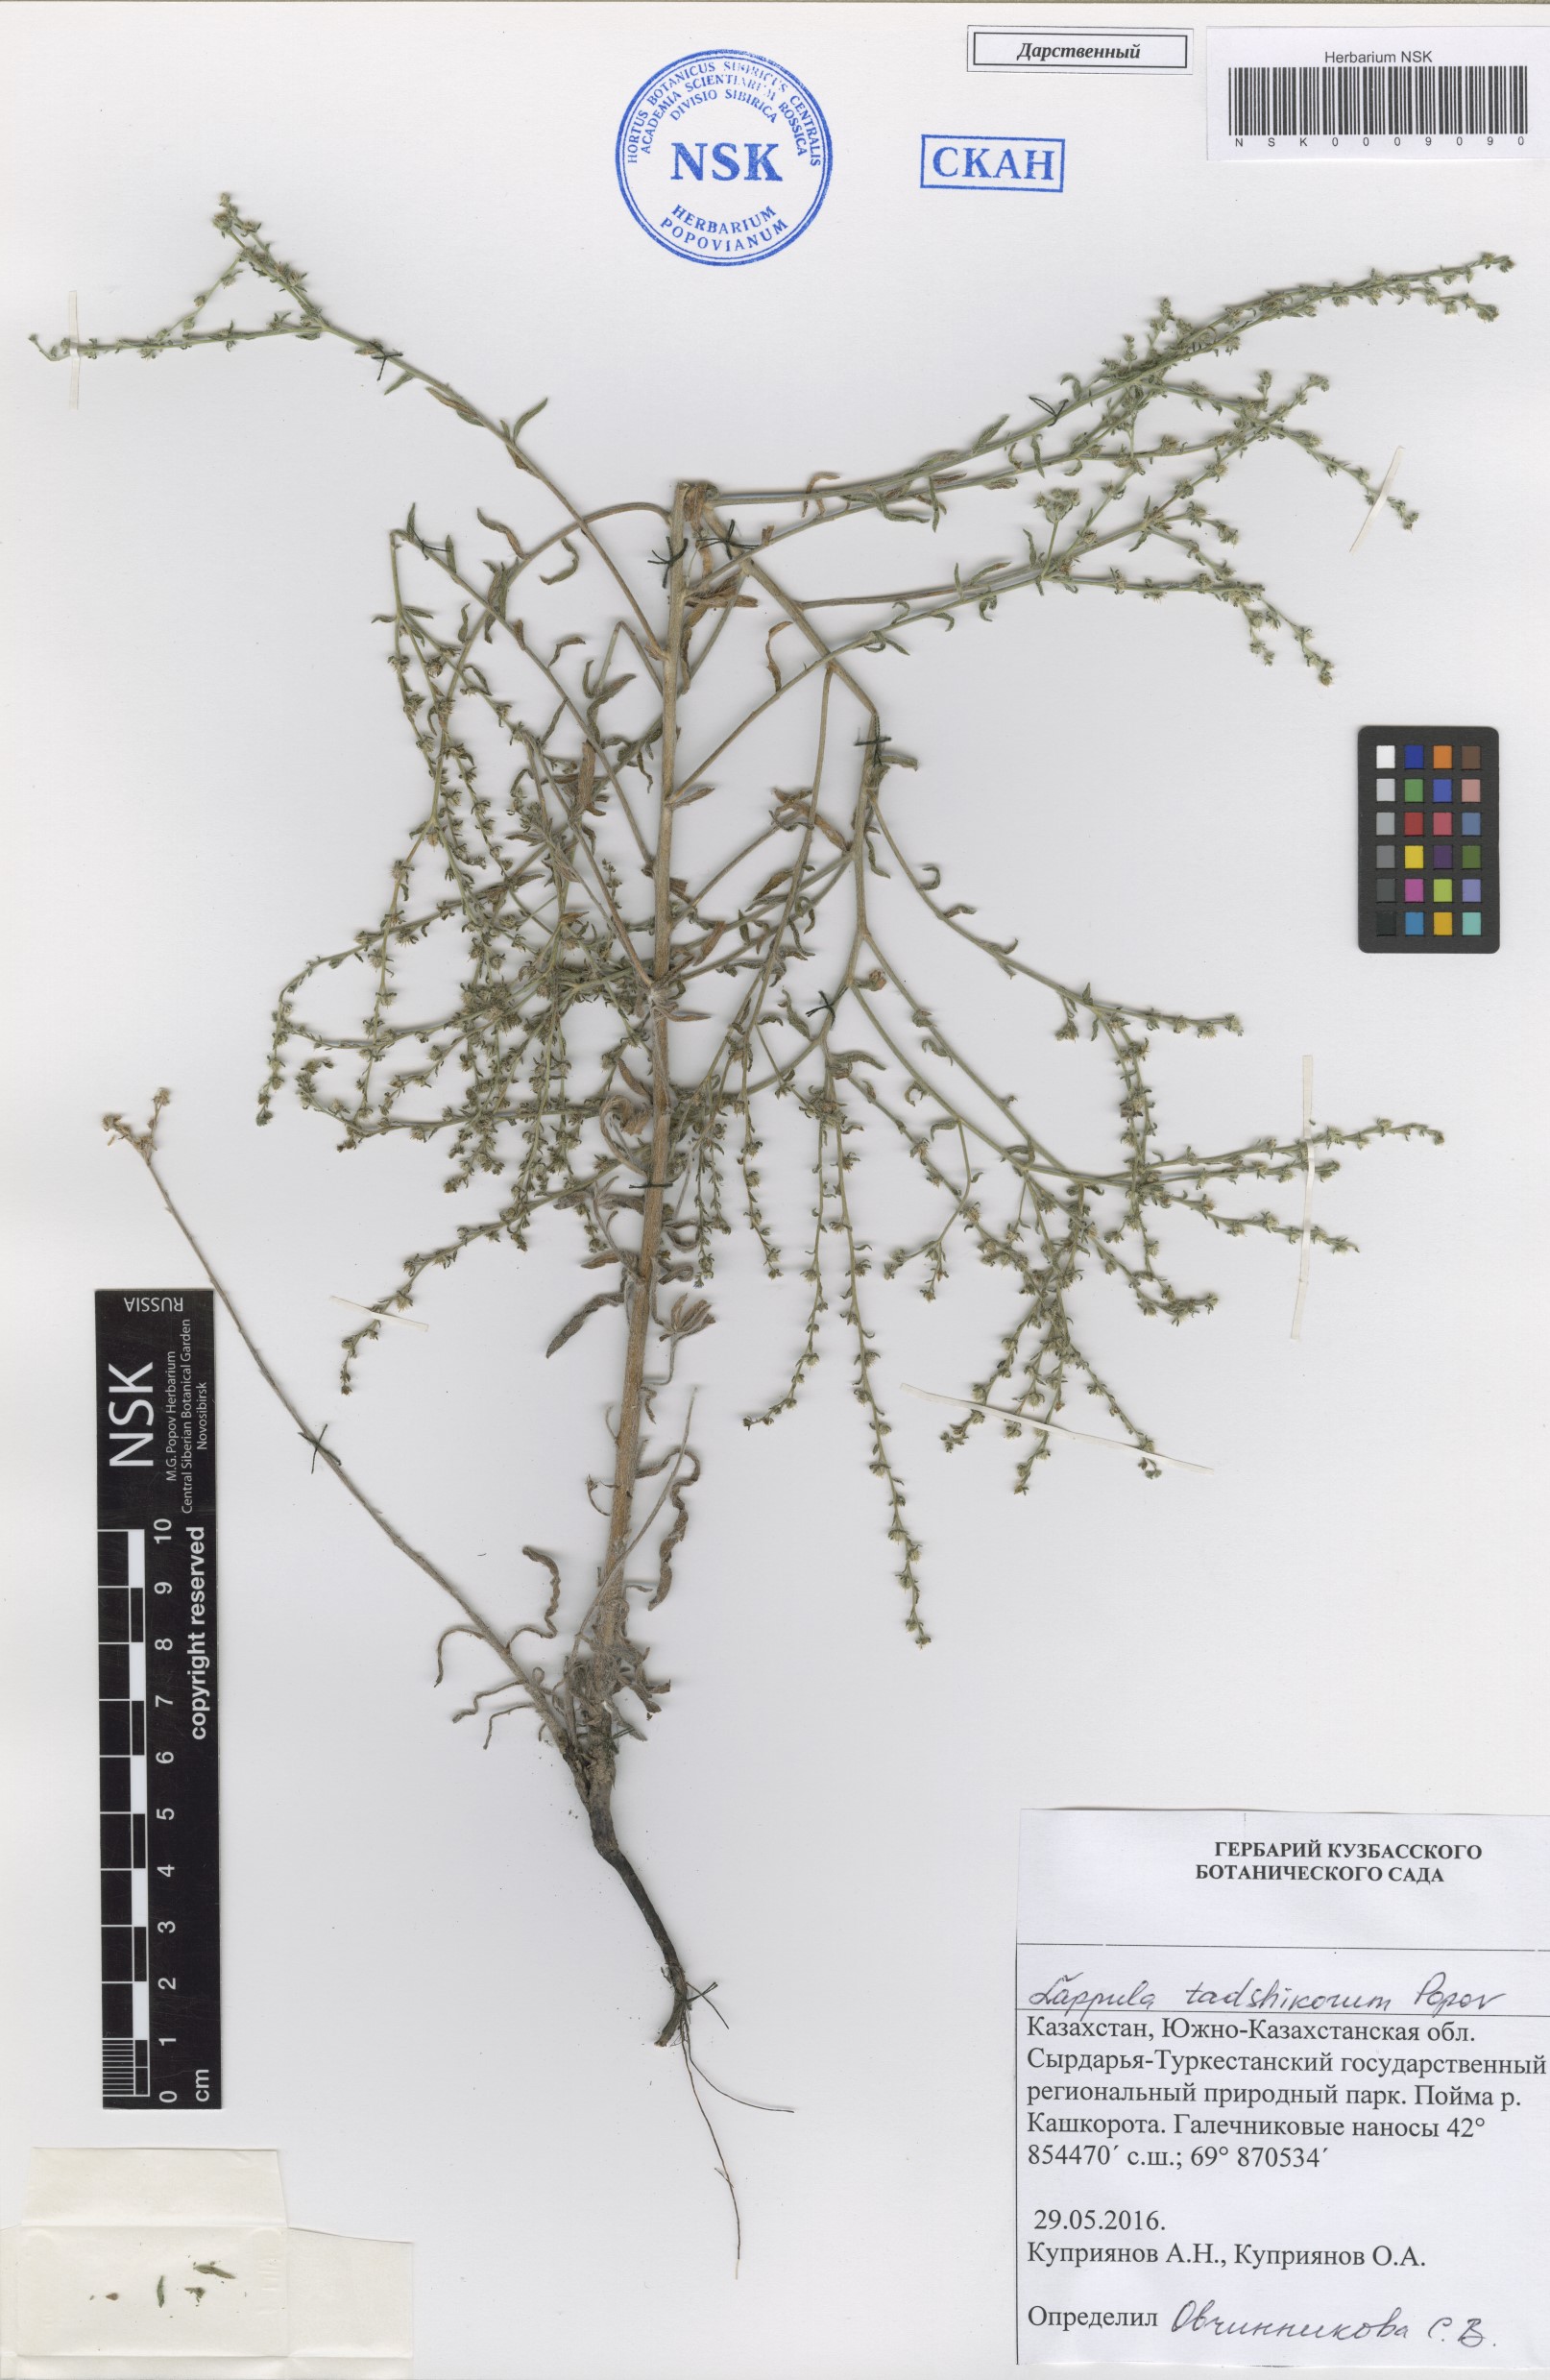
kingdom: Plantae
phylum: Tracheophyta
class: Magnoliopsida
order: Boraginales
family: Boraginaceae
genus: Lappula
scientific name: Lappula tadshikorum
